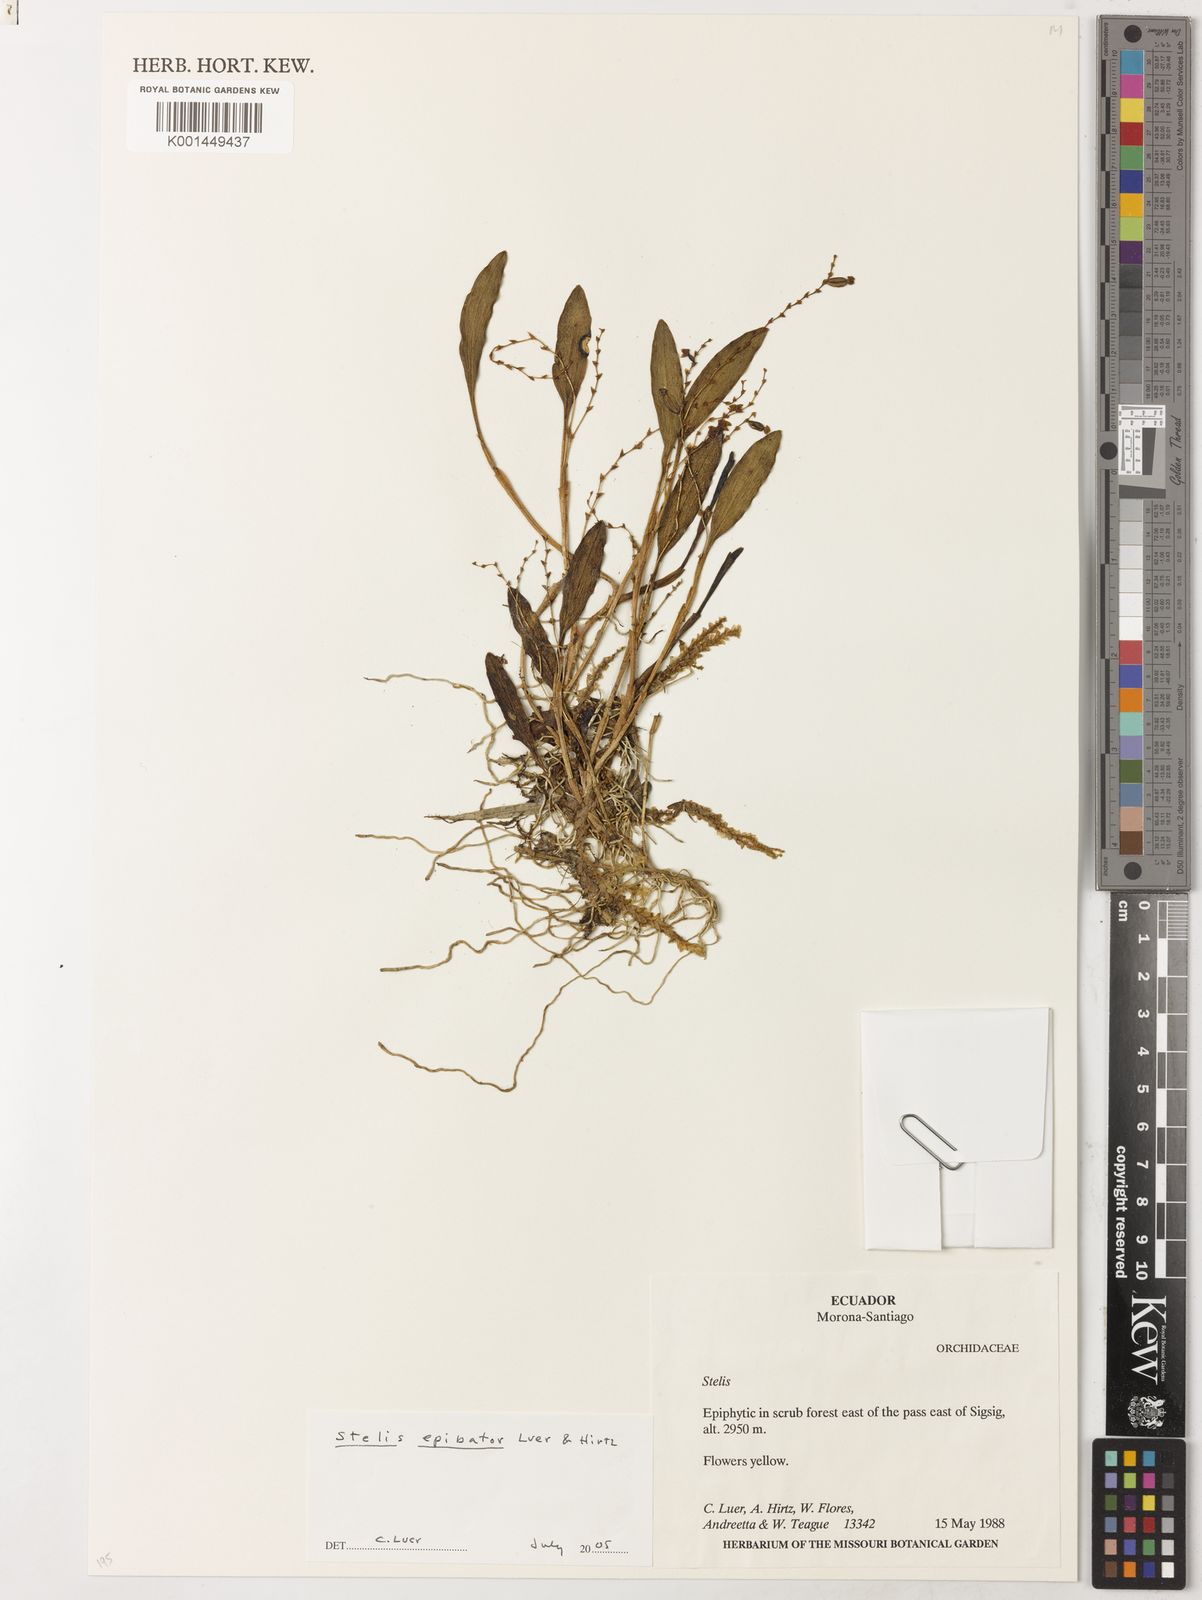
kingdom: Plantae
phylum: Tracheophyta
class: Liliopsida
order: Asparagales
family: Orchidaceae
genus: Stelis
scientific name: Stelis atra
